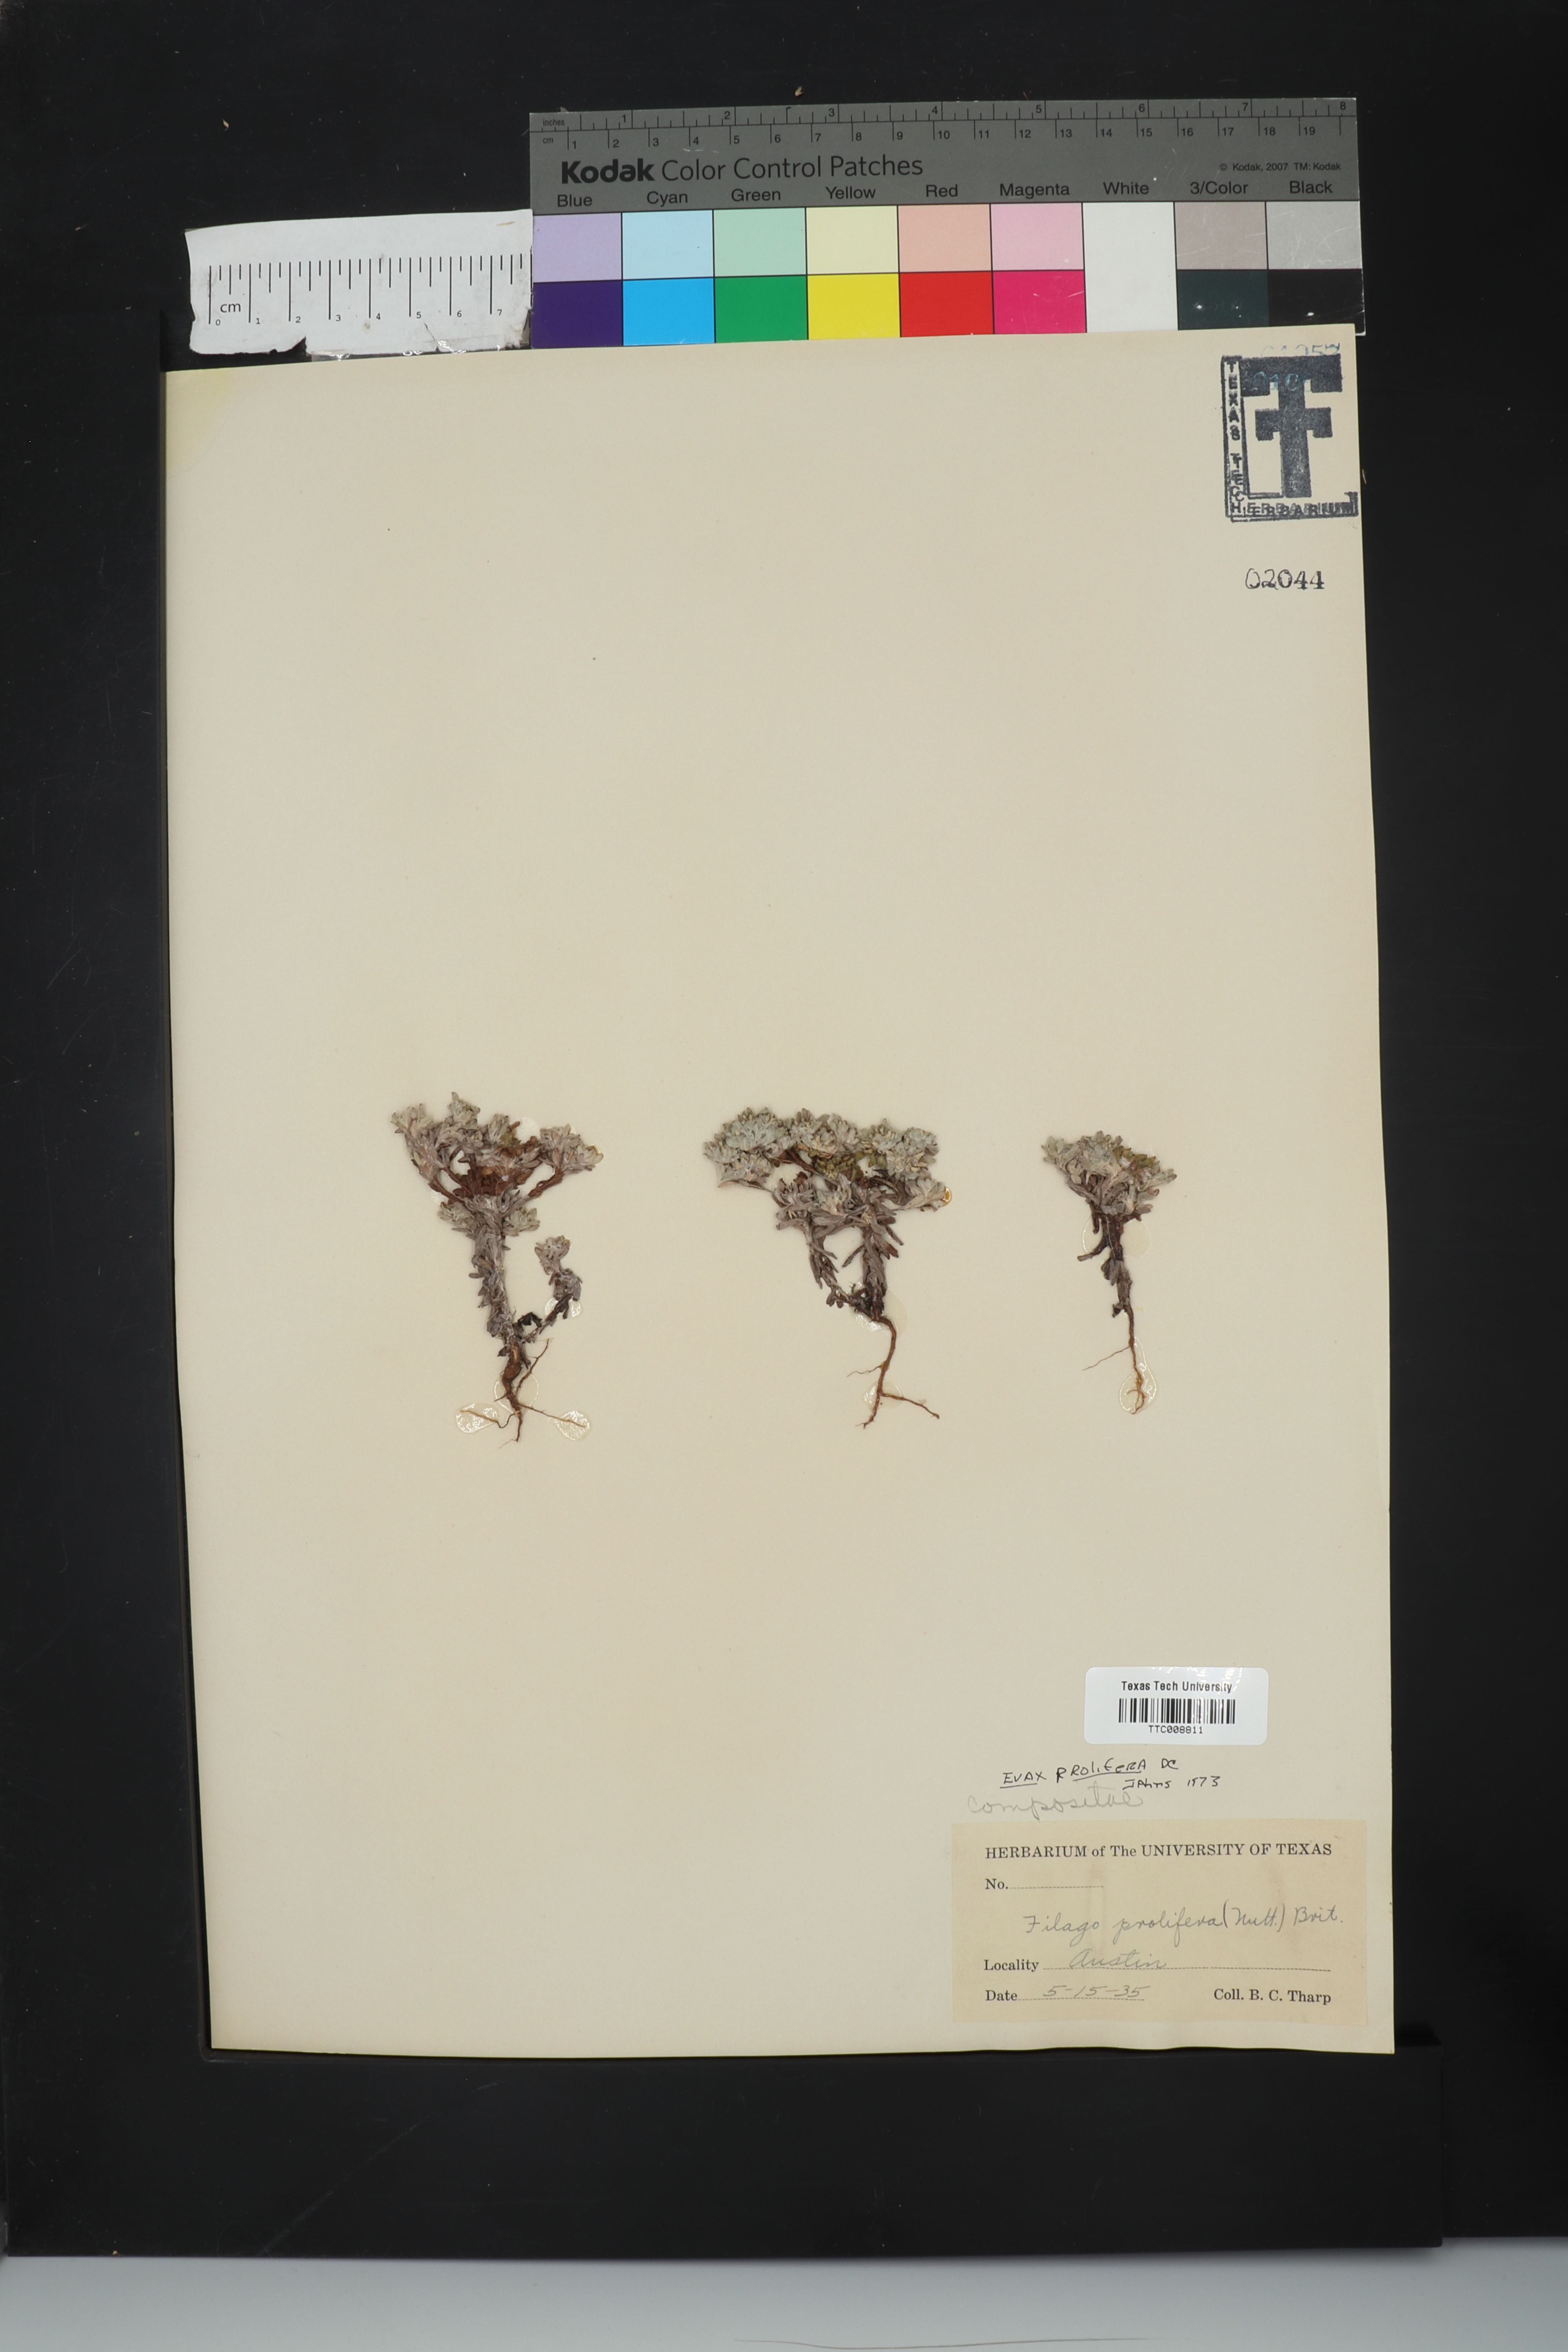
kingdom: Plantae
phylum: Tracheophyta
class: Magnoliopsida
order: Asterales
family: Asteraceae
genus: Diaperia
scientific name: Diaperia prolifera
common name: Big-head rabbit-tobacco
